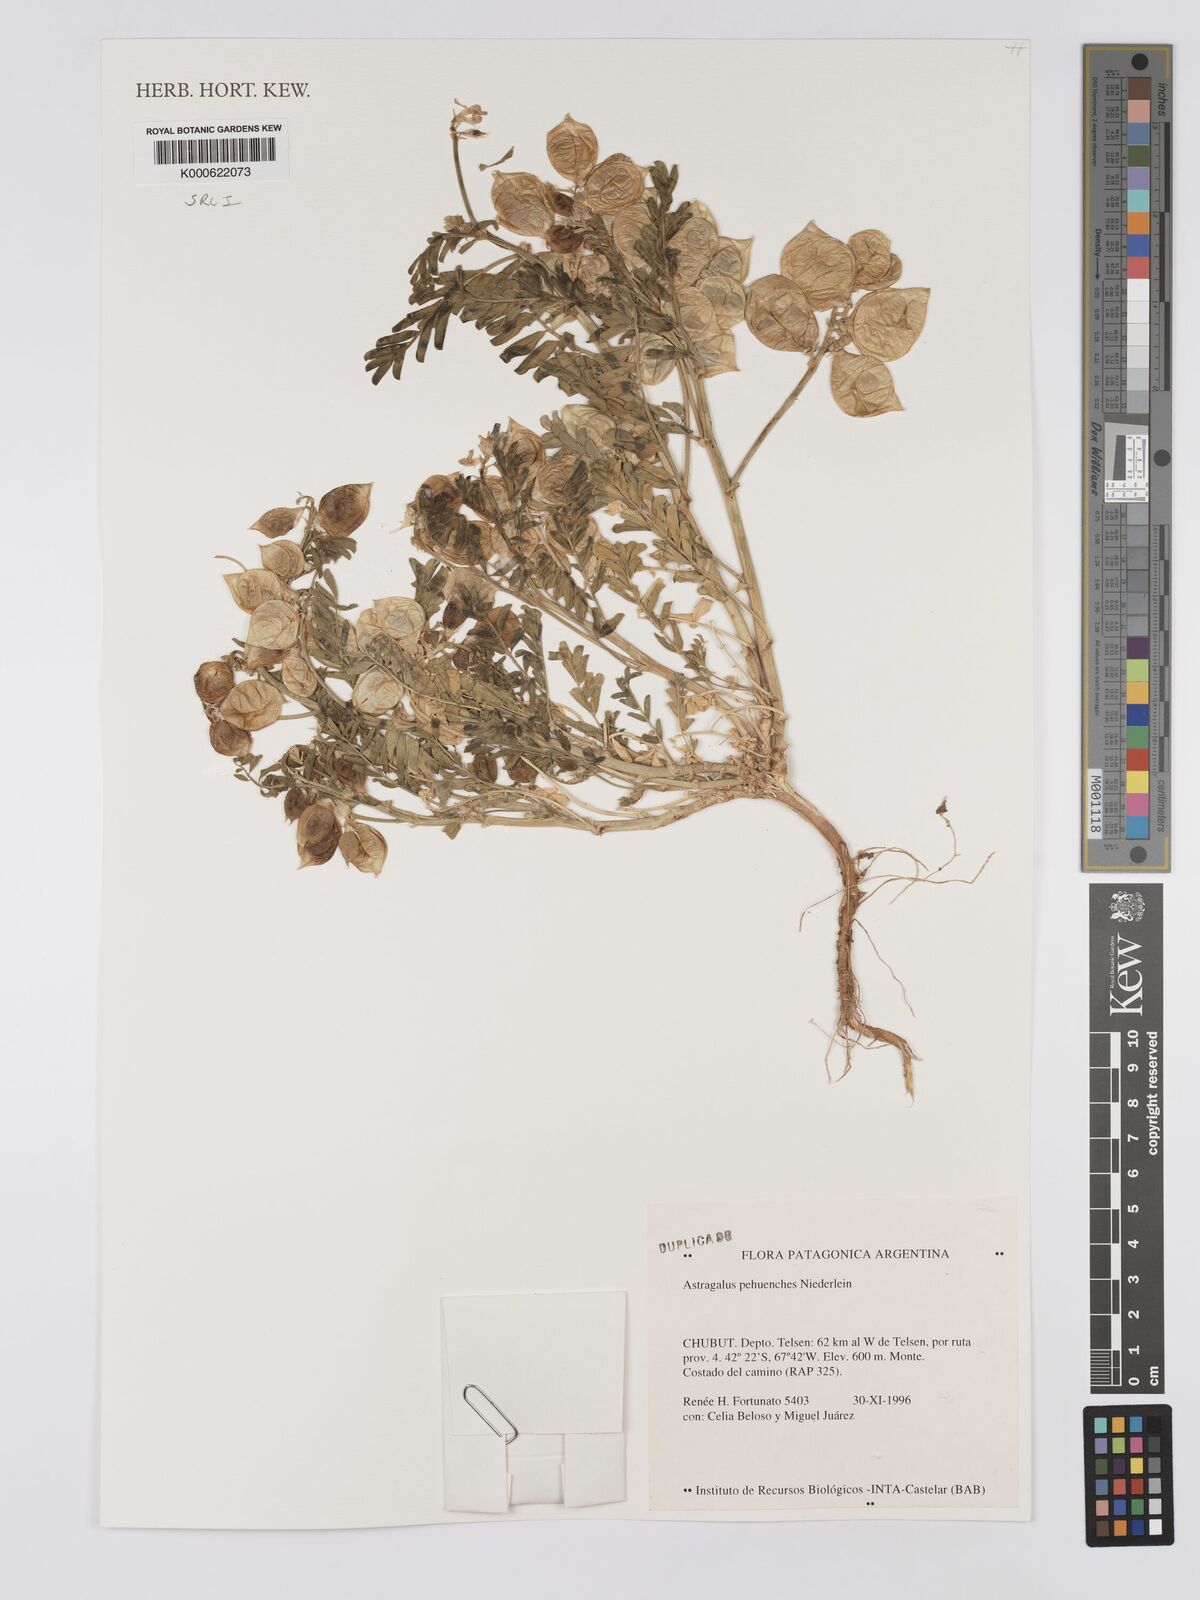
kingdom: Plantae
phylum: Tracheophyta
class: Magnoliopsida
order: Fabales
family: Fabaceae
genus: Astragalus
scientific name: Astragalus pehuenches
